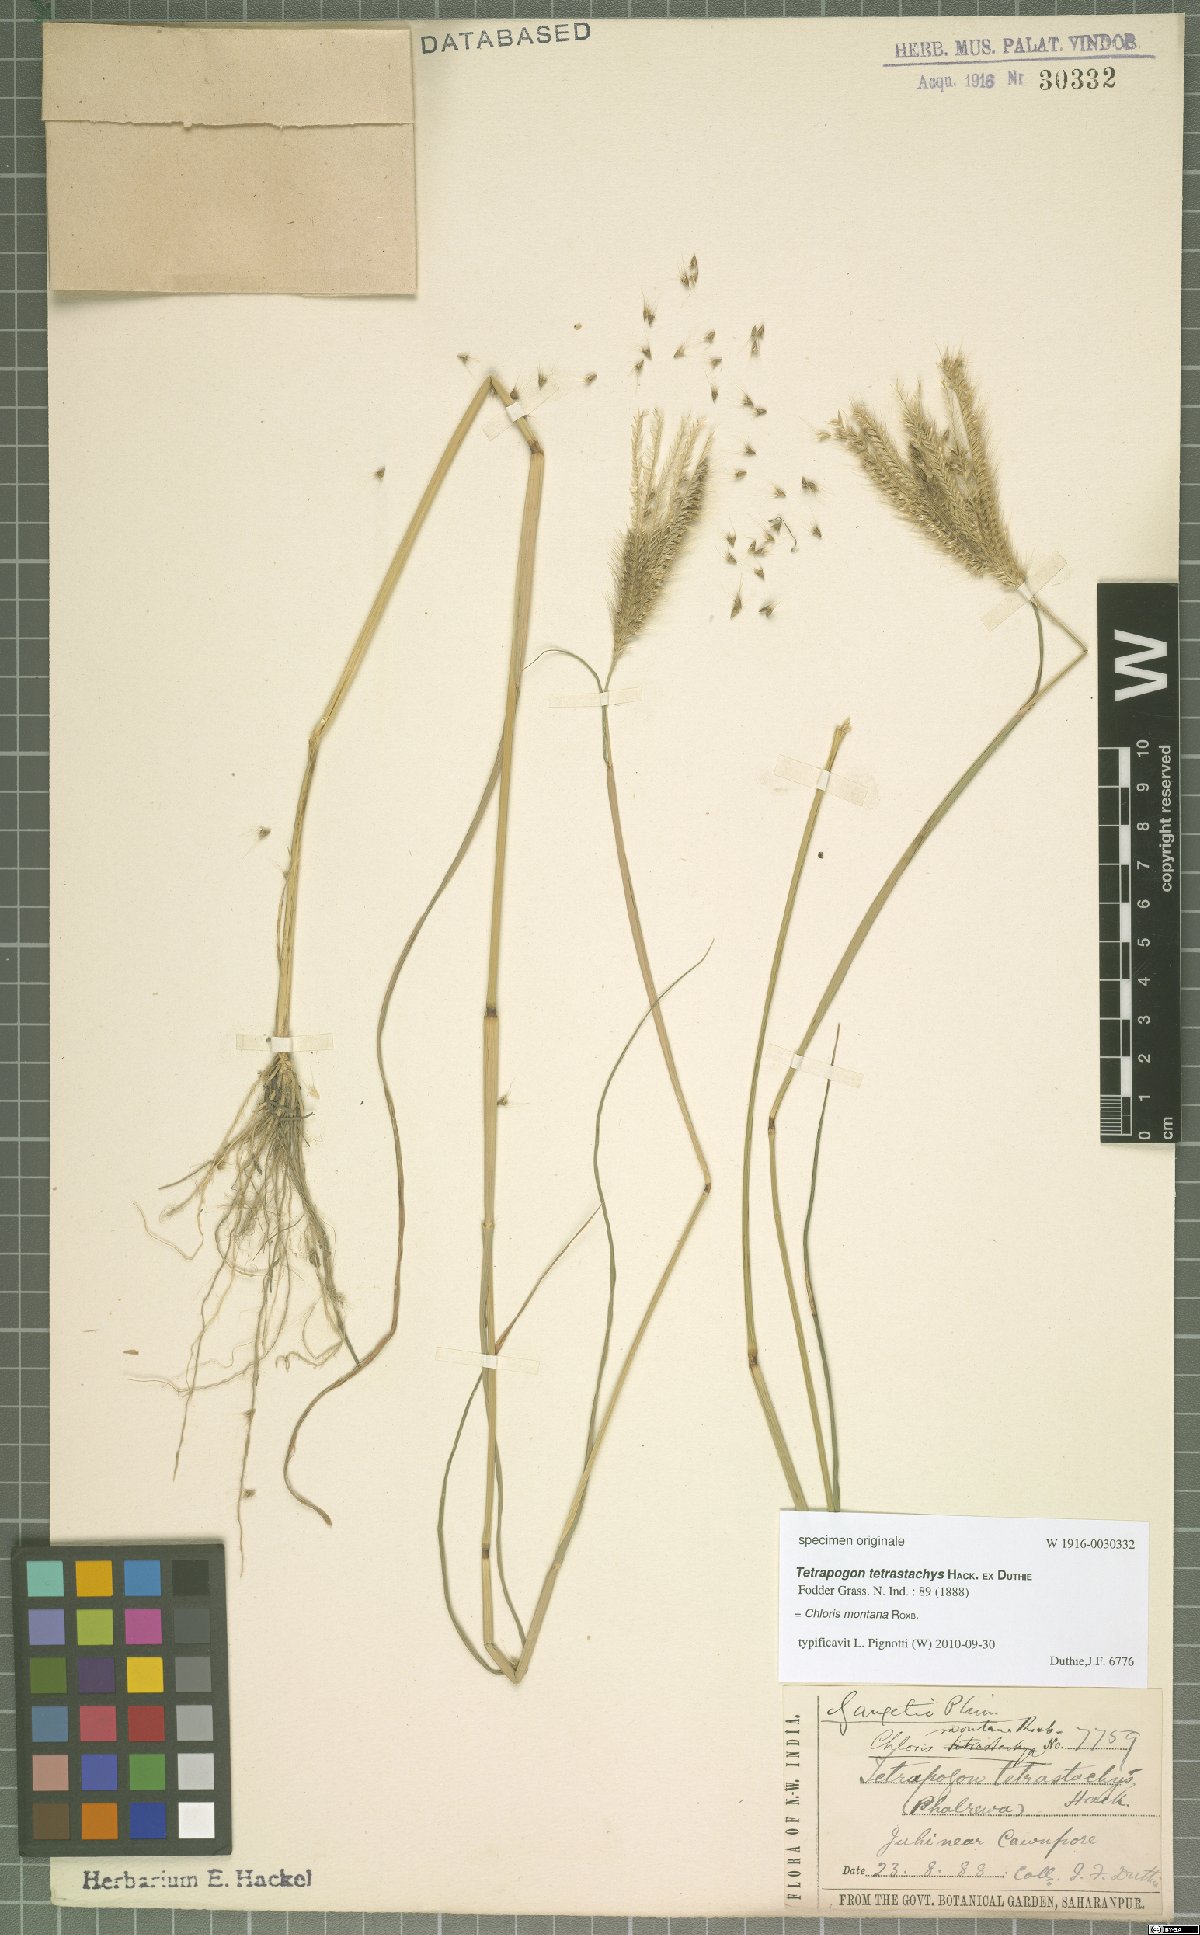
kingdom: Plantae
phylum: Tracheophyta
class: Liliopsida
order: Poales
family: Poaceae
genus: Chloris
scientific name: Chloris montana
